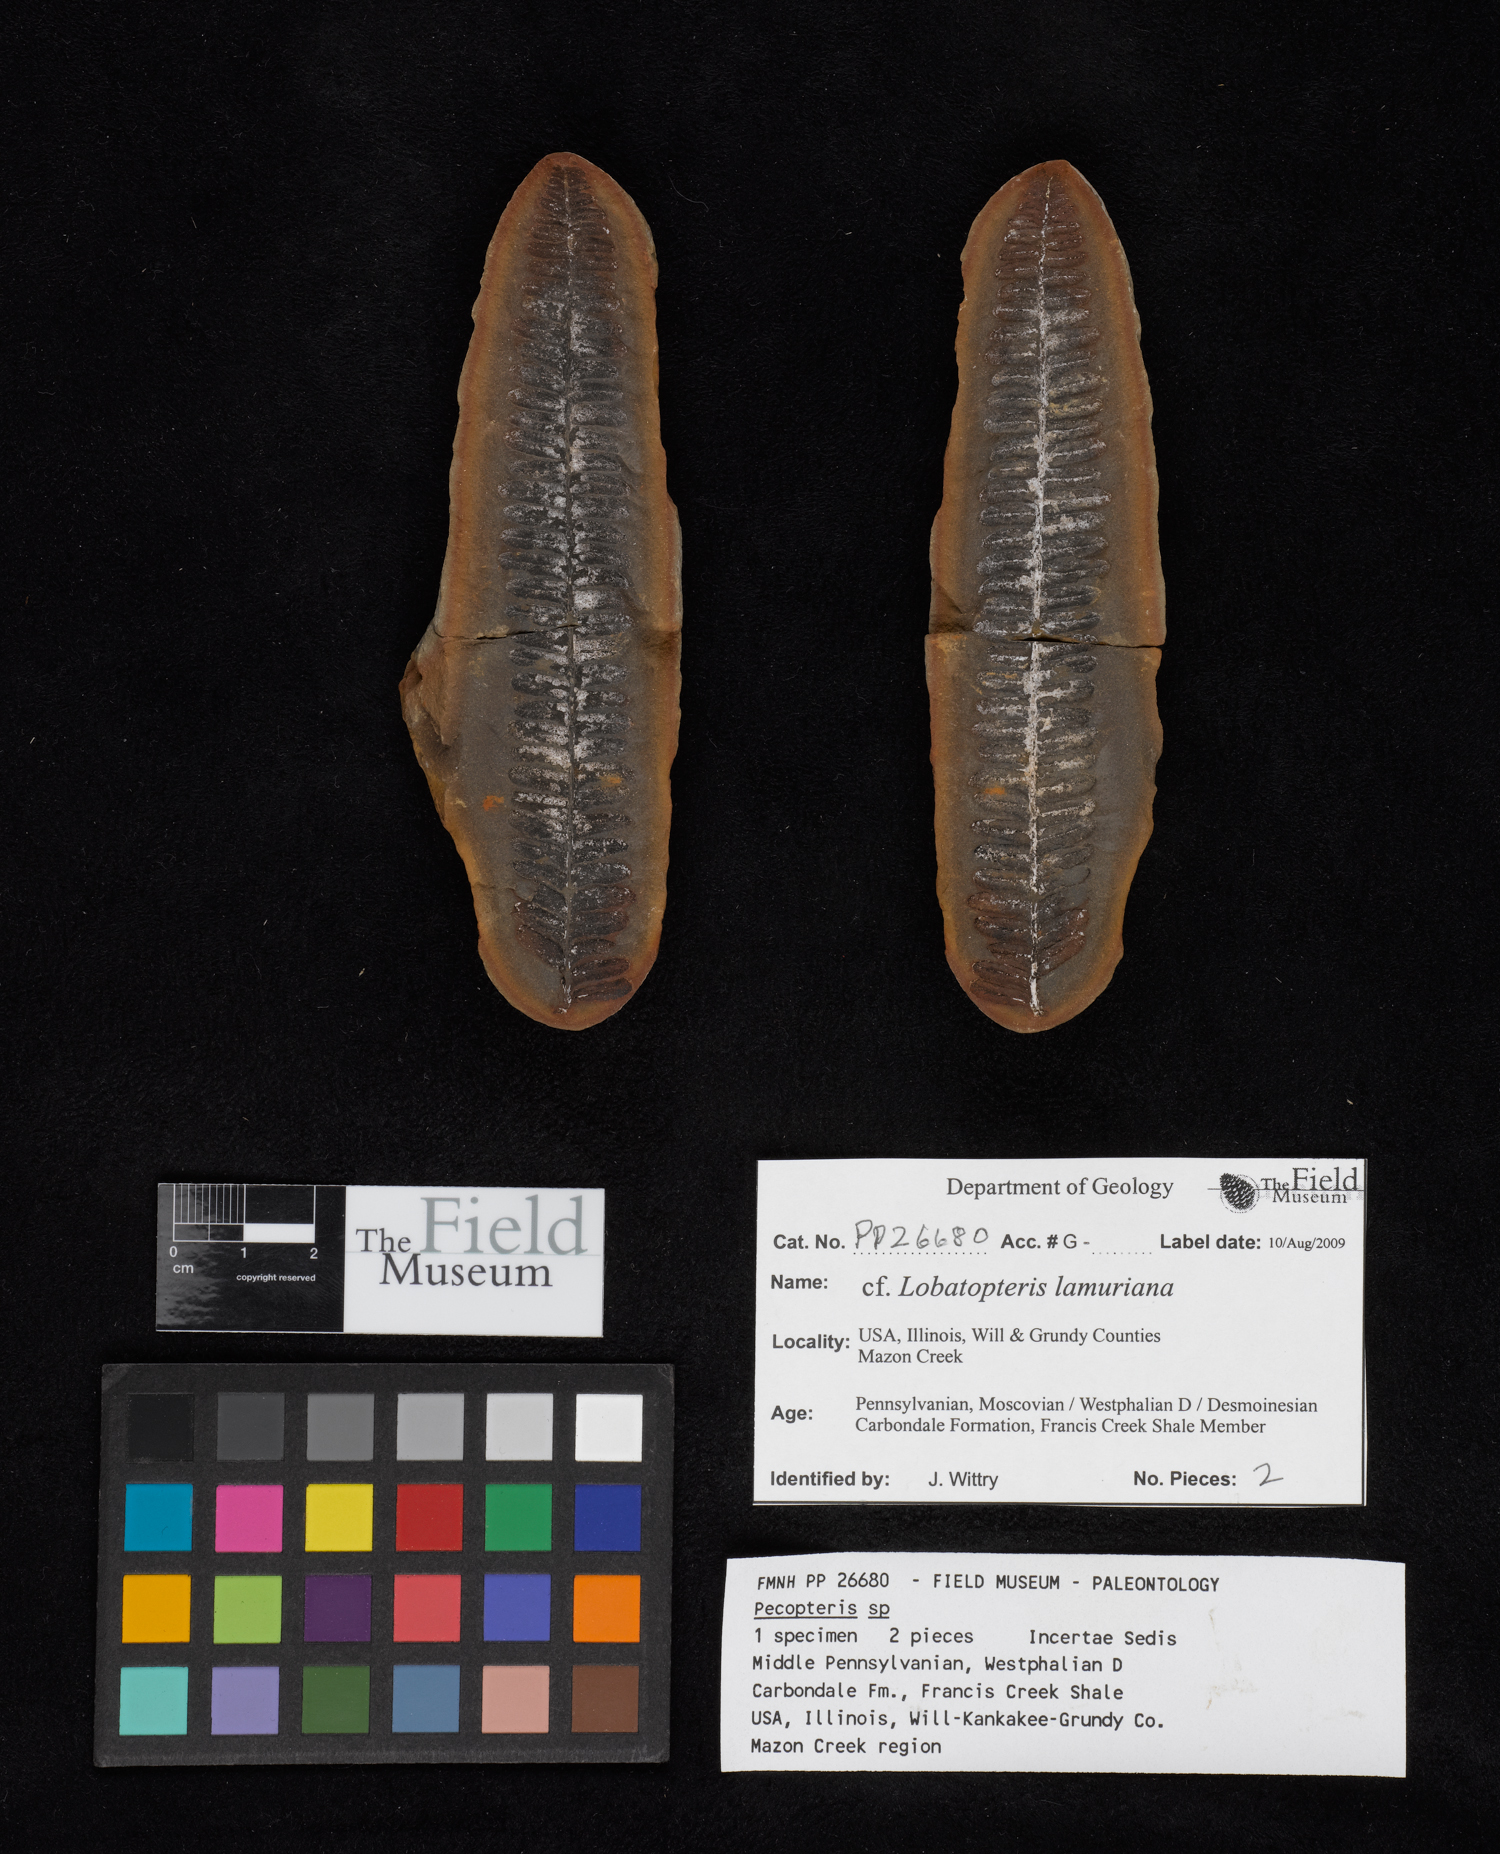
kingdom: Plantae
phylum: Tracheophyta
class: Polypodiopsida
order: Marattiales
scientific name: Marattiales
